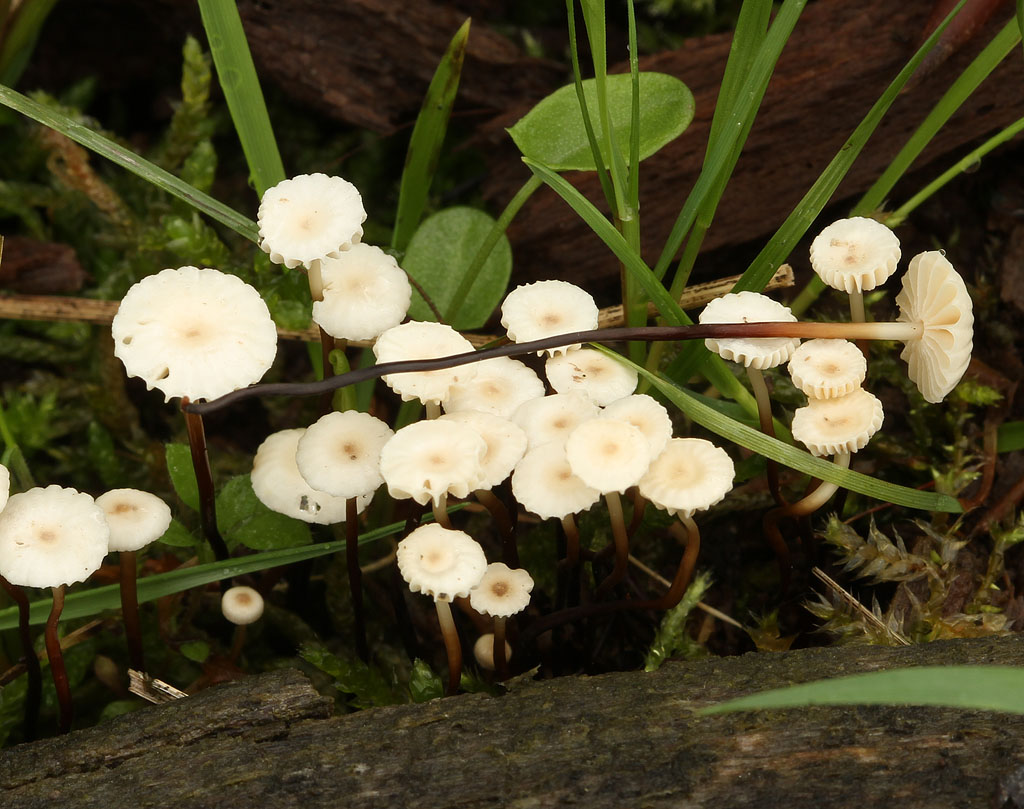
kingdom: Fungi
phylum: Basidiomycota
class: Agaricomycetes
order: Agaricales
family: Marasmiaceae
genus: Marasmius
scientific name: Marasmius rotula
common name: hjul-bruskhat
